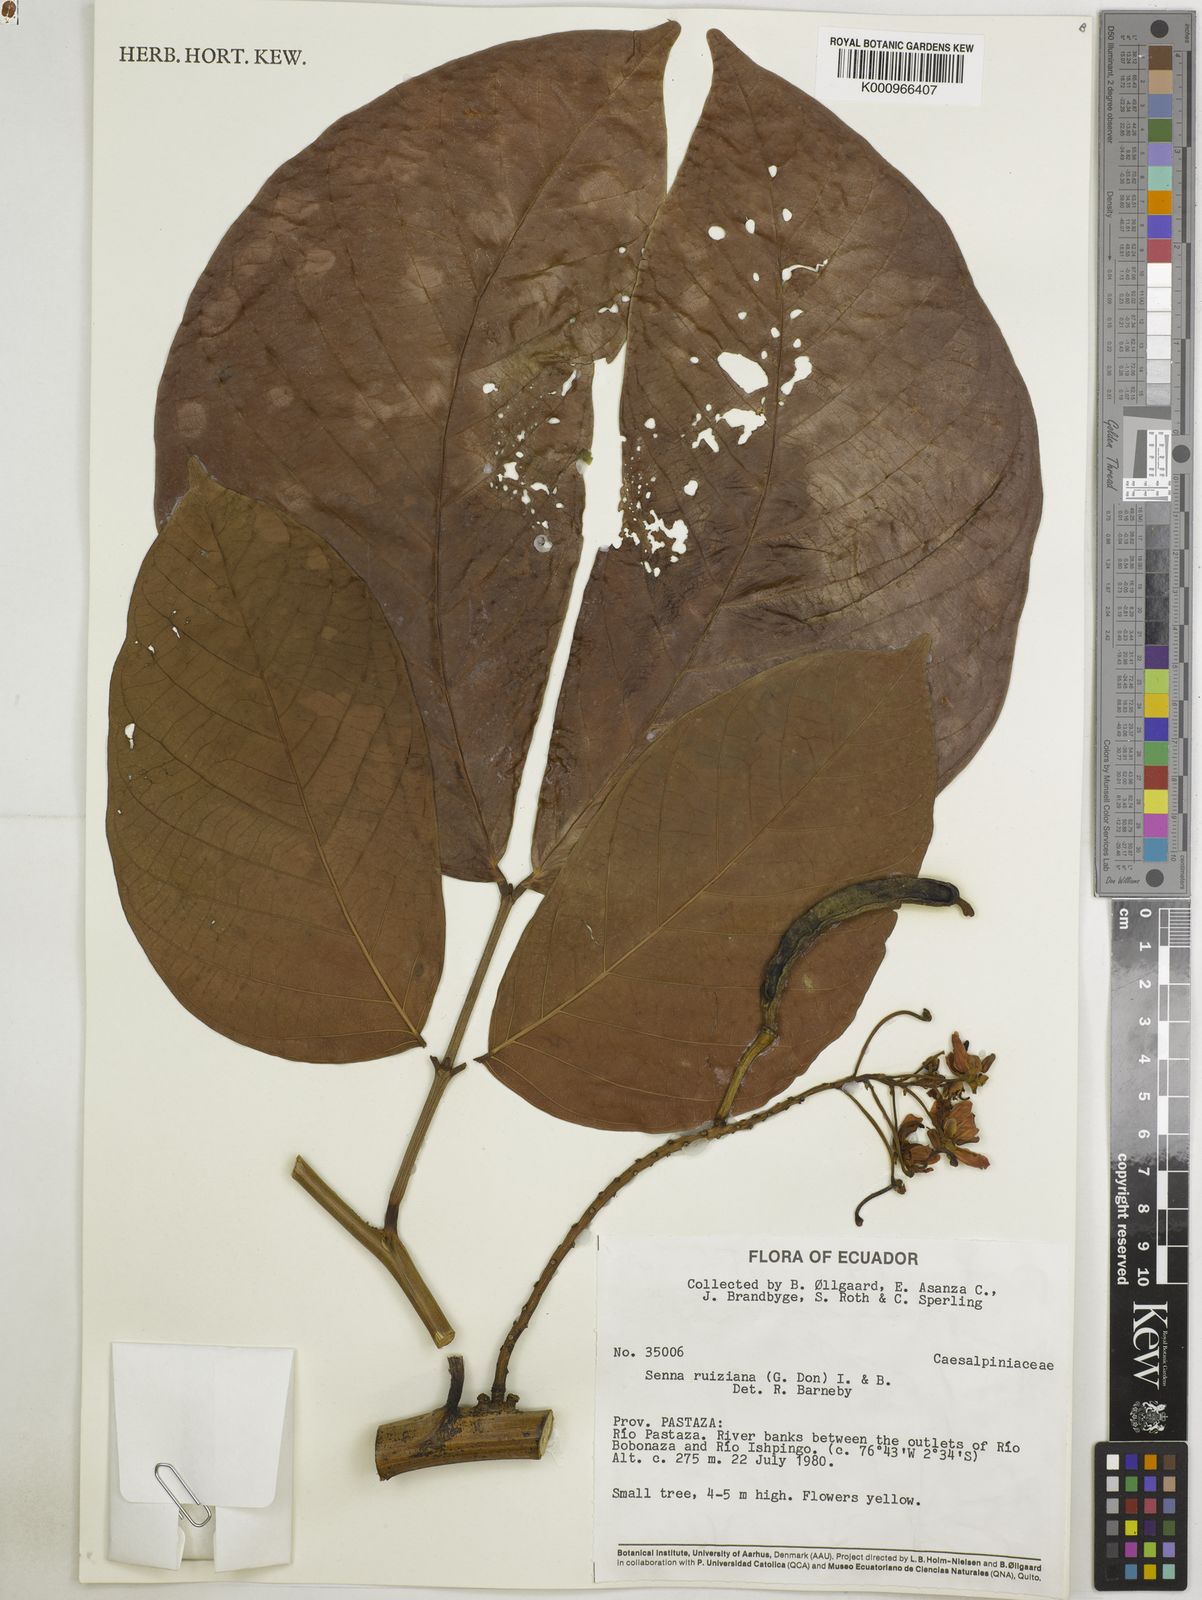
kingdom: Plantae
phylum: Tracheophyta
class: Magnoliopsida
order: Fabales
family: Fabaceae
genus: Senna
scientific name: Senna ruiziana
